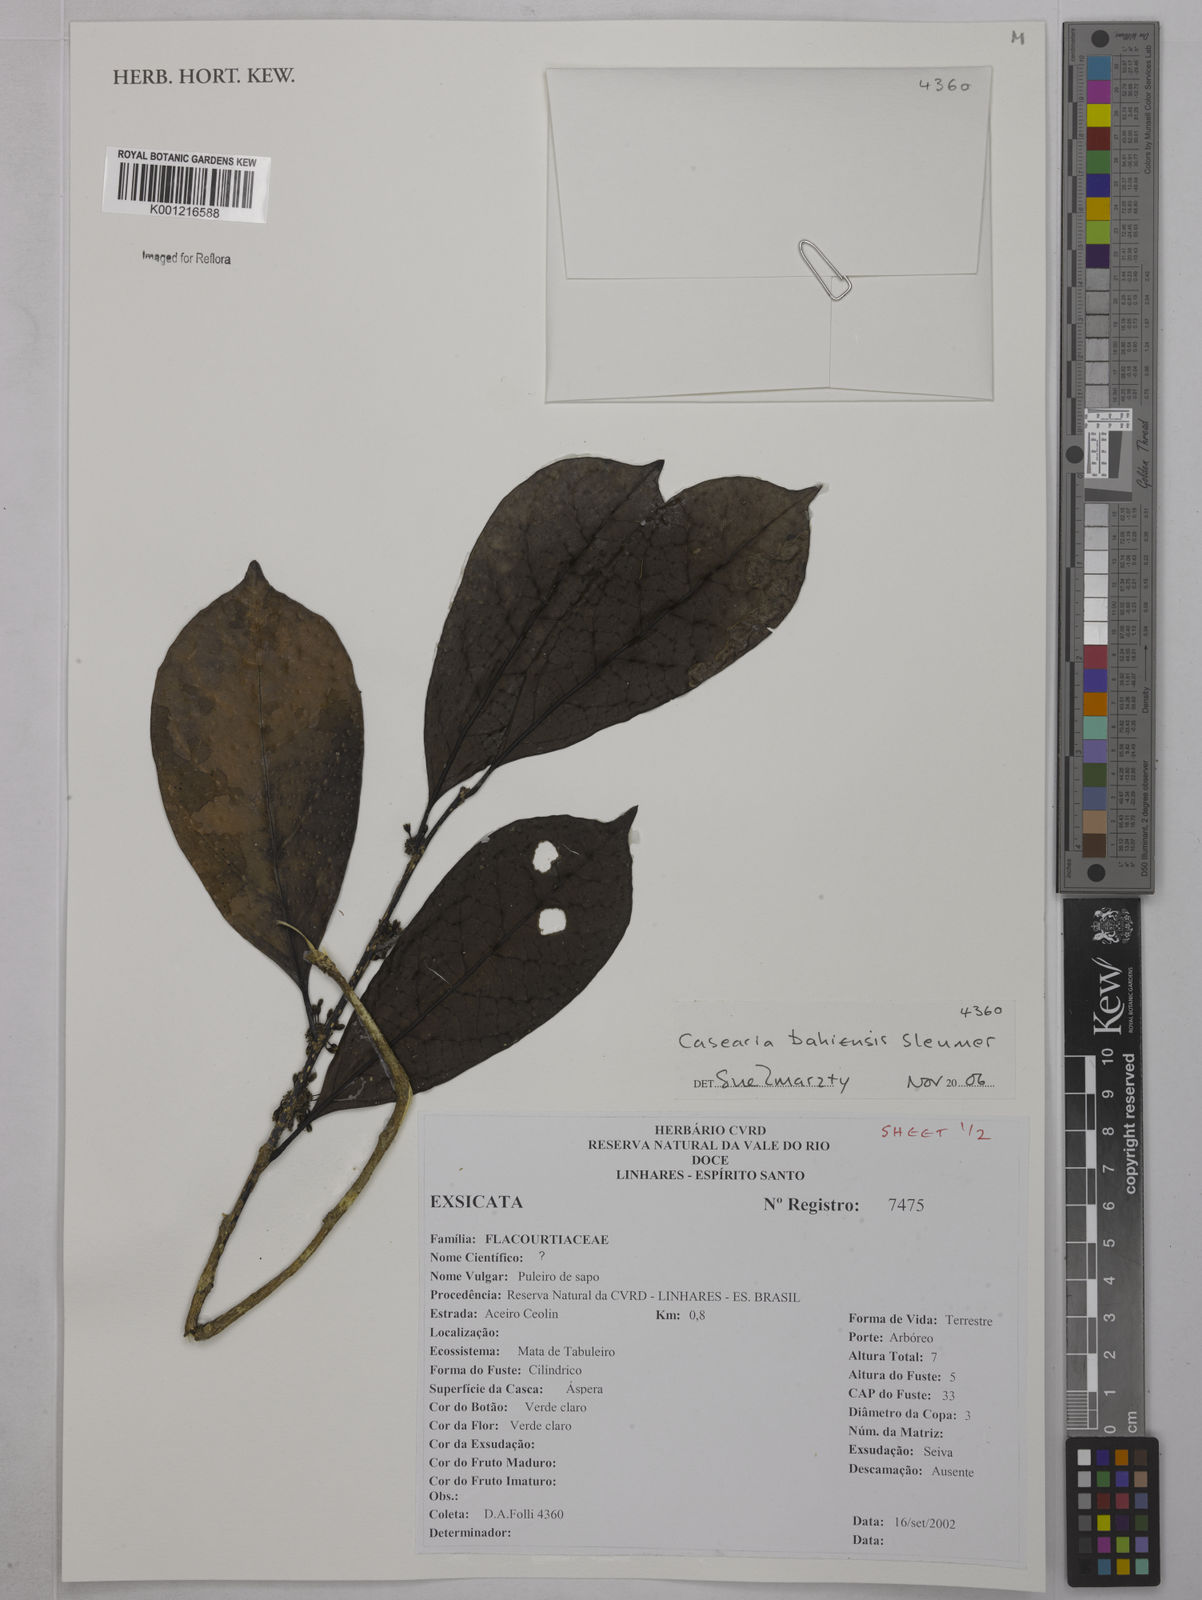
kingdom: Plantae
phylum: Tracheophyta
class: Magnoliopsida
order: Malpighiales
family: Salicaceae
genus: Casearia
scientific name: Casearia bahiensis
